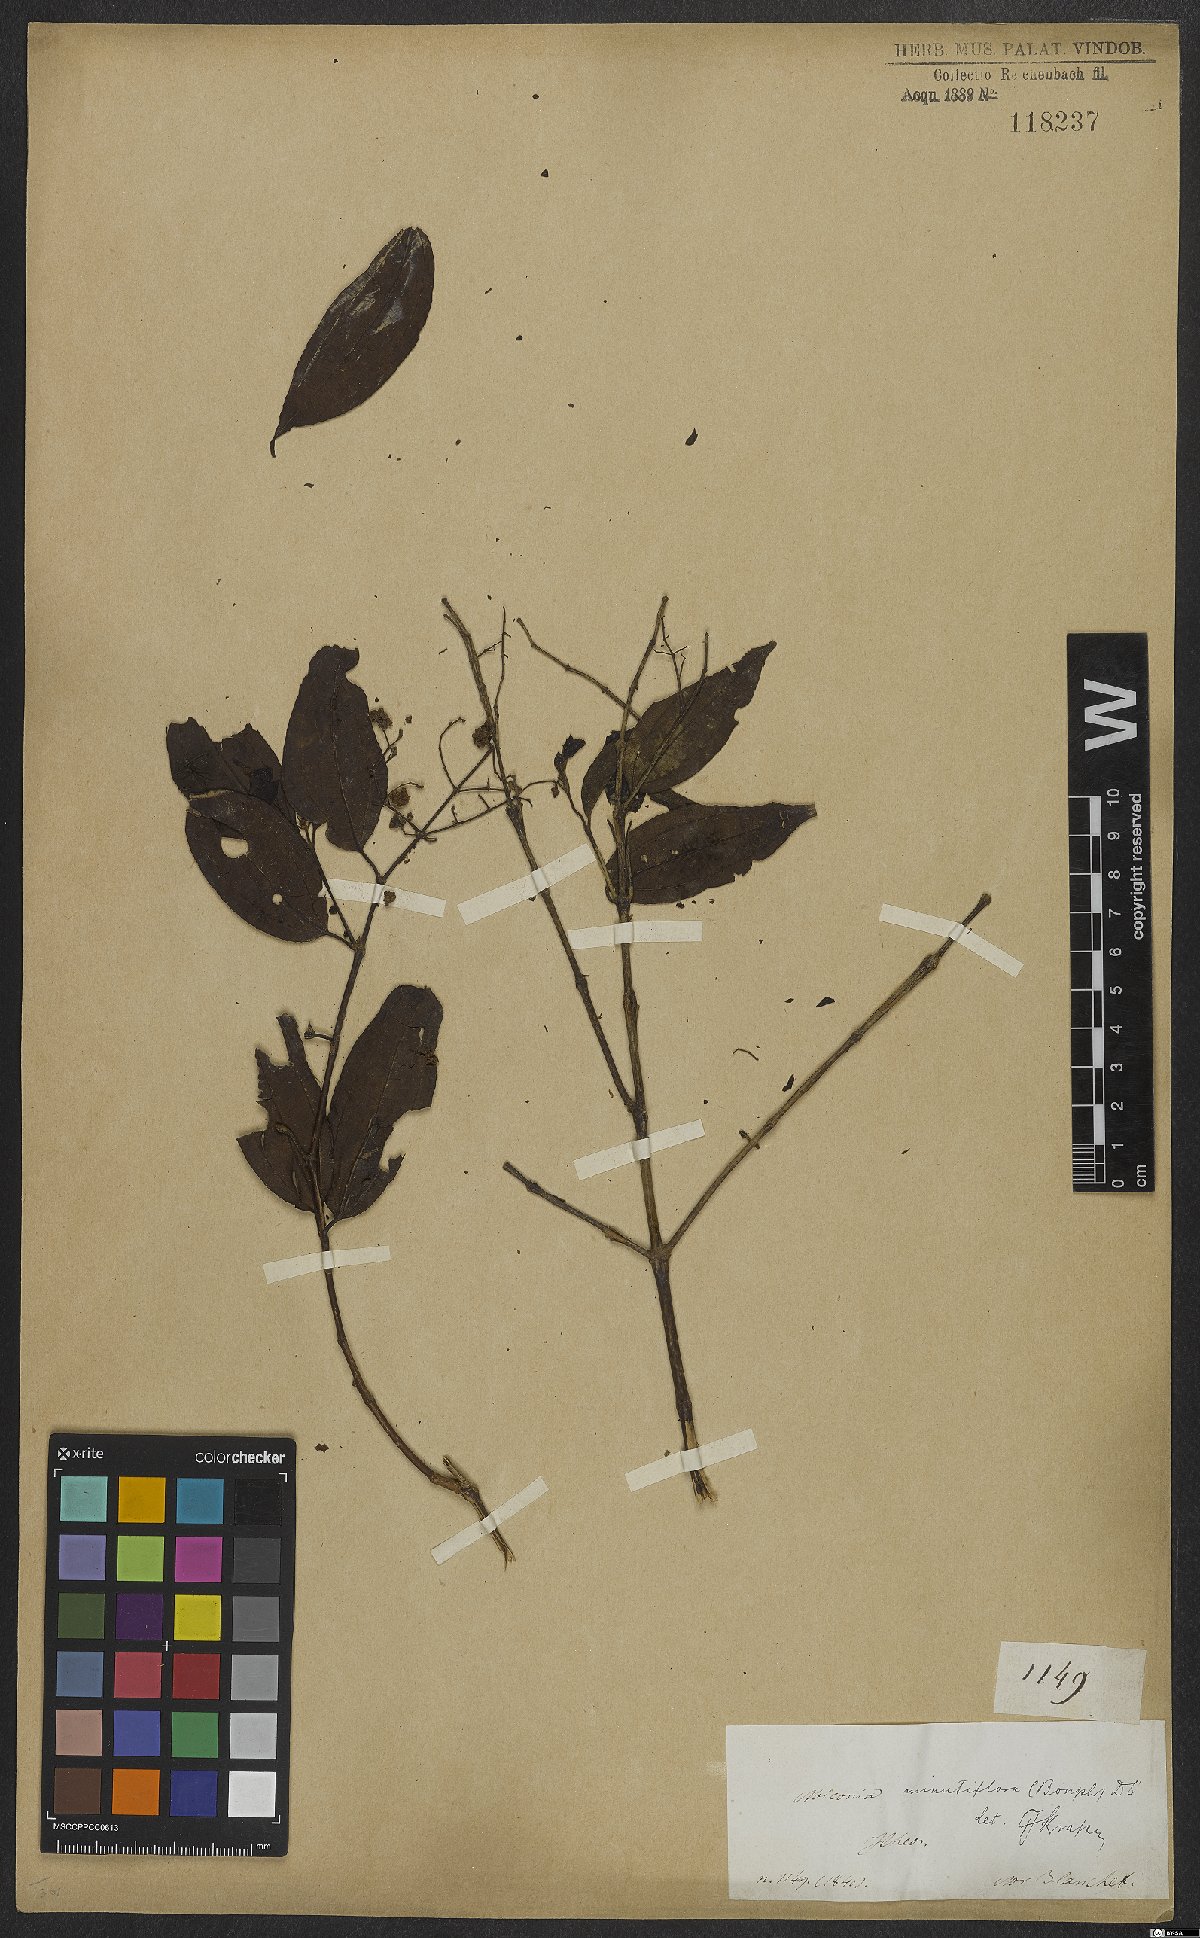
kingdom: Plantae
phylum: Tracheophyta
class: Magnoliopsida
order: Myrtales
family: Melastomataceae
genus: Miconia
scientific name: Miconia minutiflora
